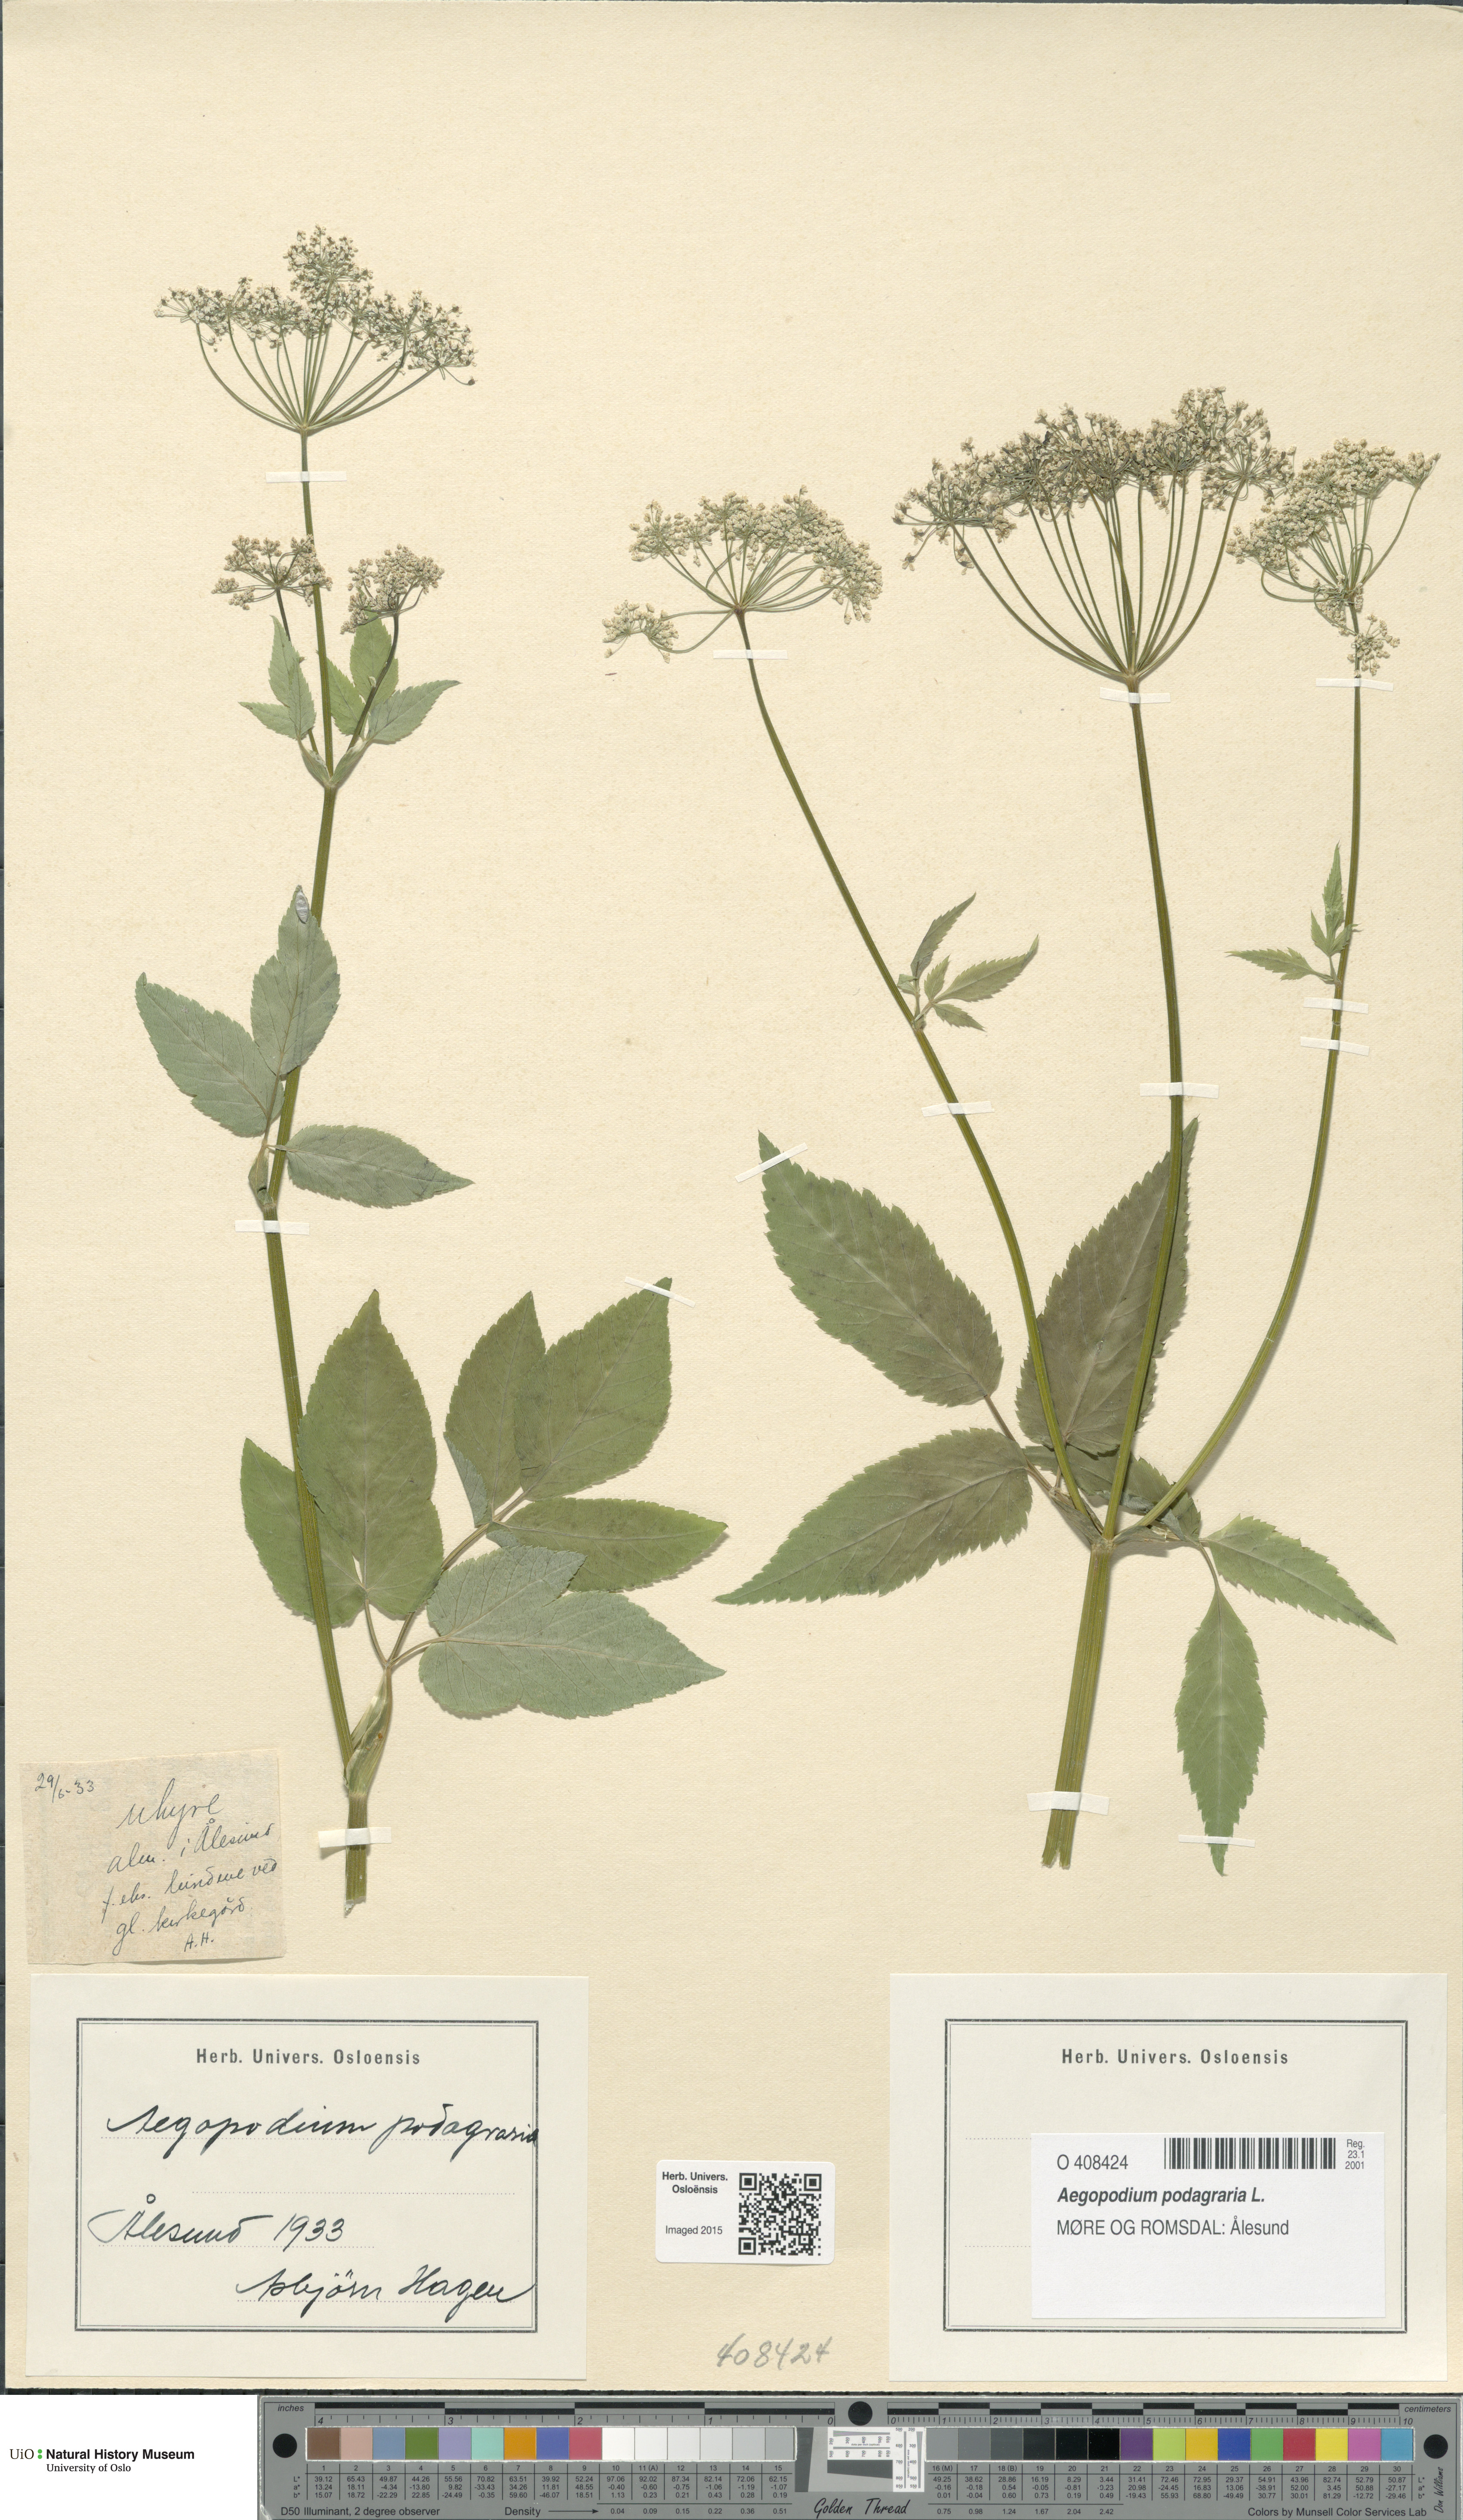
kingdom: Plantae
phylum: Tracheophyta
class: Magnoliopsida
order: Apiales
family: Apiaceae
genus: Aegopodium
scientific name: Aegopodium podagraria
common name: Ground-elder
